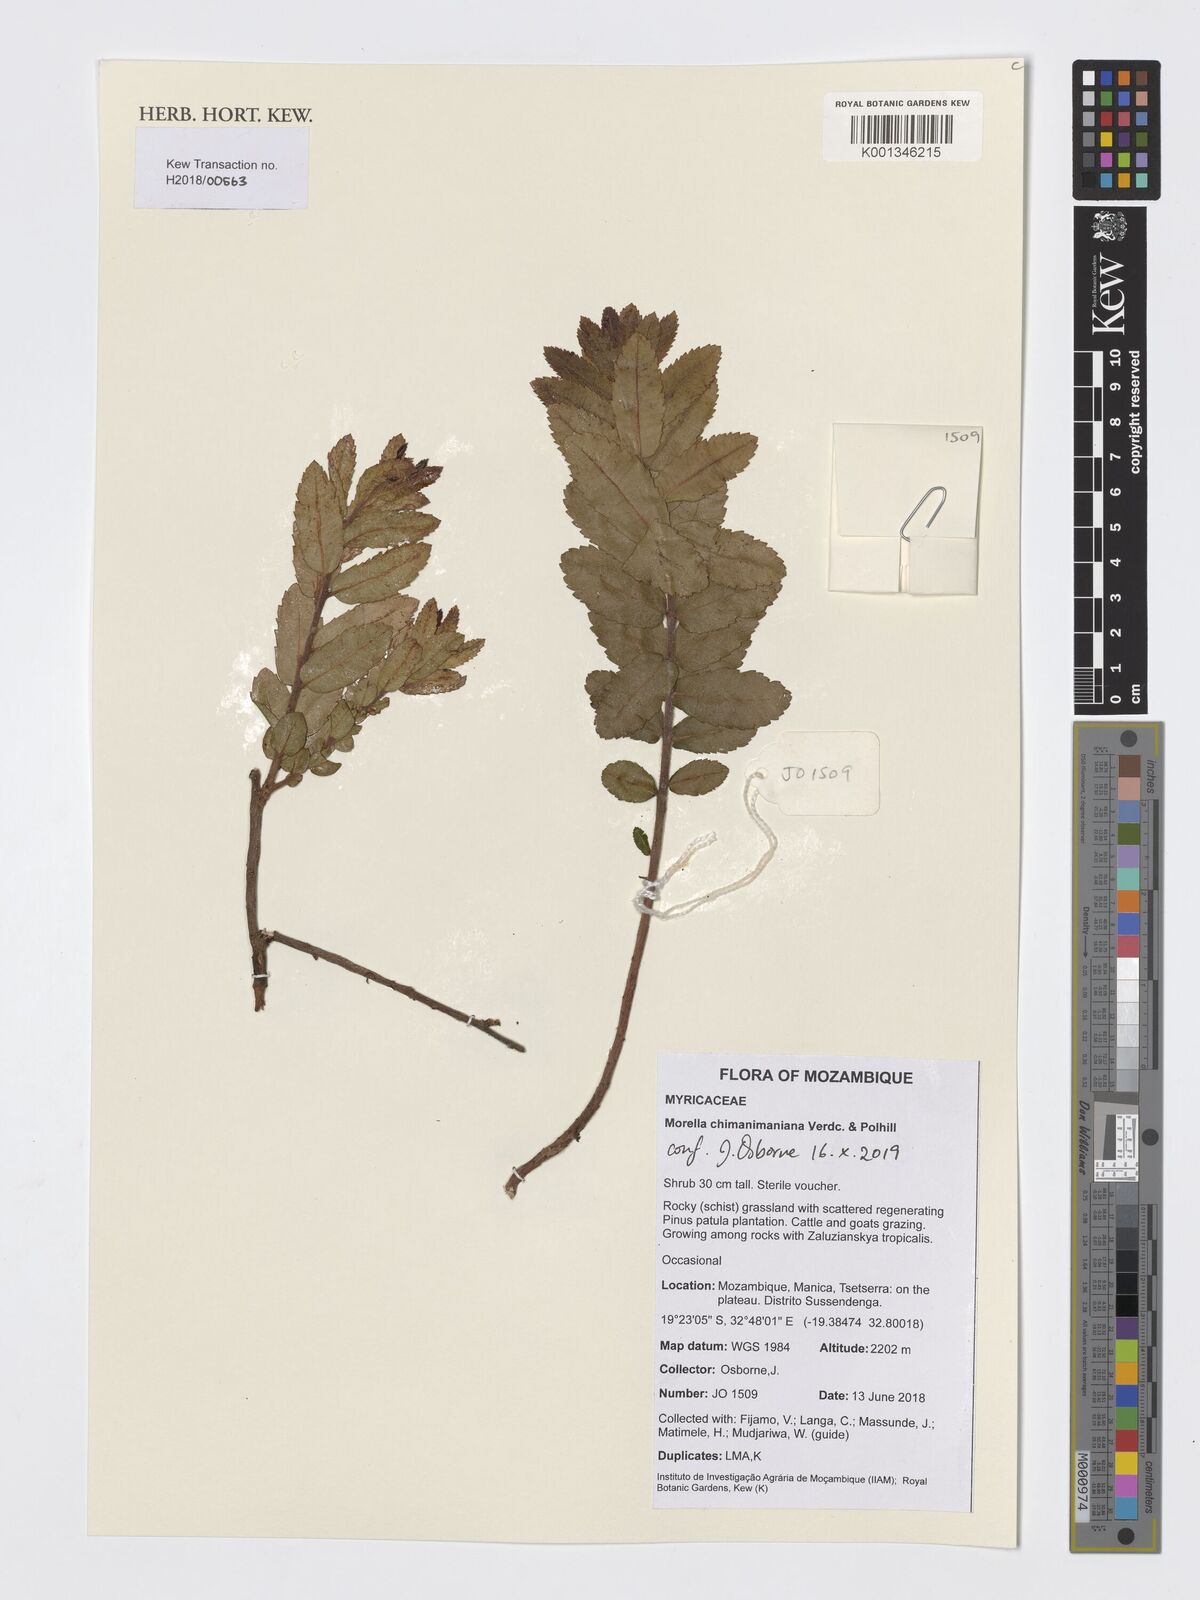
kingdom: Plantae
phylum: Tracheophyta
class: Magnoliopsida
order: Fagales
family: Myricaceae
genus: Morella
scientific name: Morella chimanimaniana
